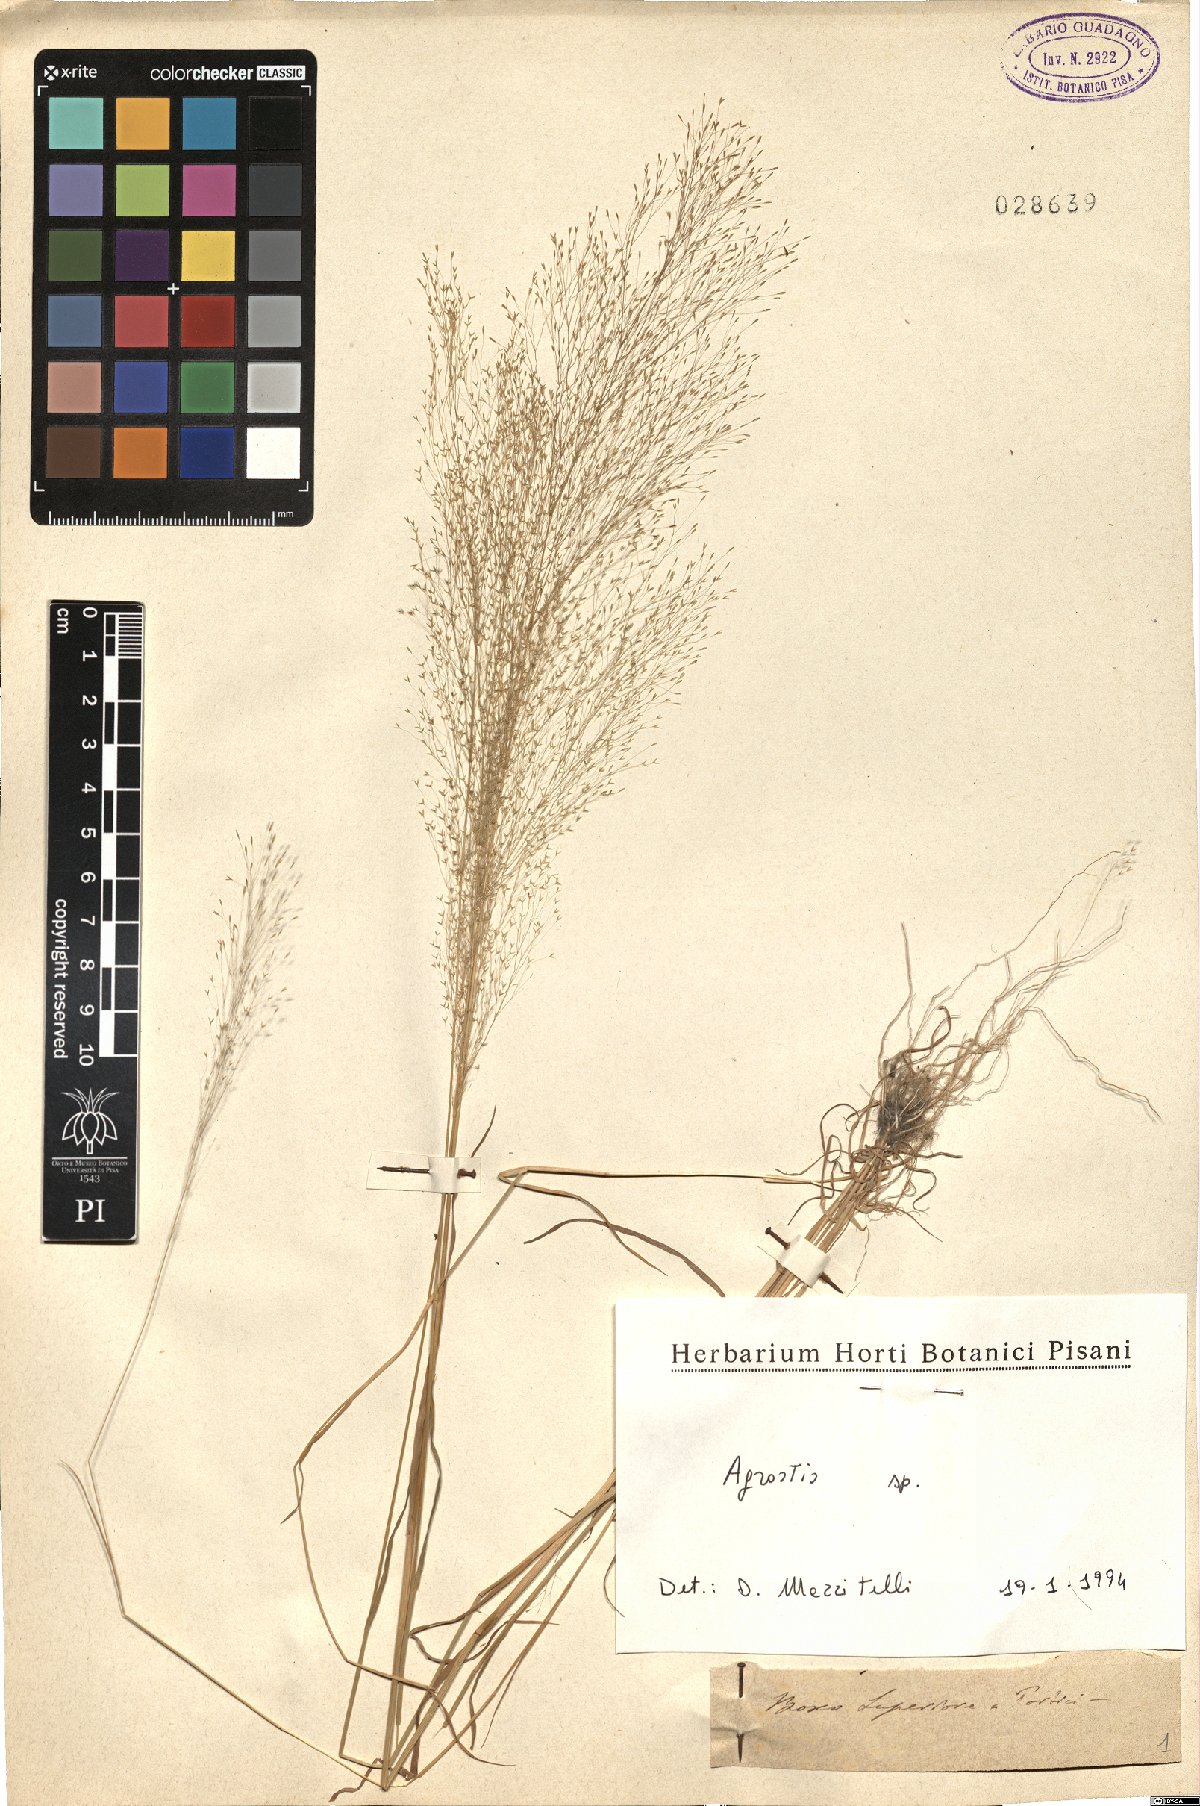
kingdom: Plantae
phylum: Tracheophyta
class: Liliopsida
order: Poales
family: Poaceae
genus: Agrostis
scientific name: Agrostis
